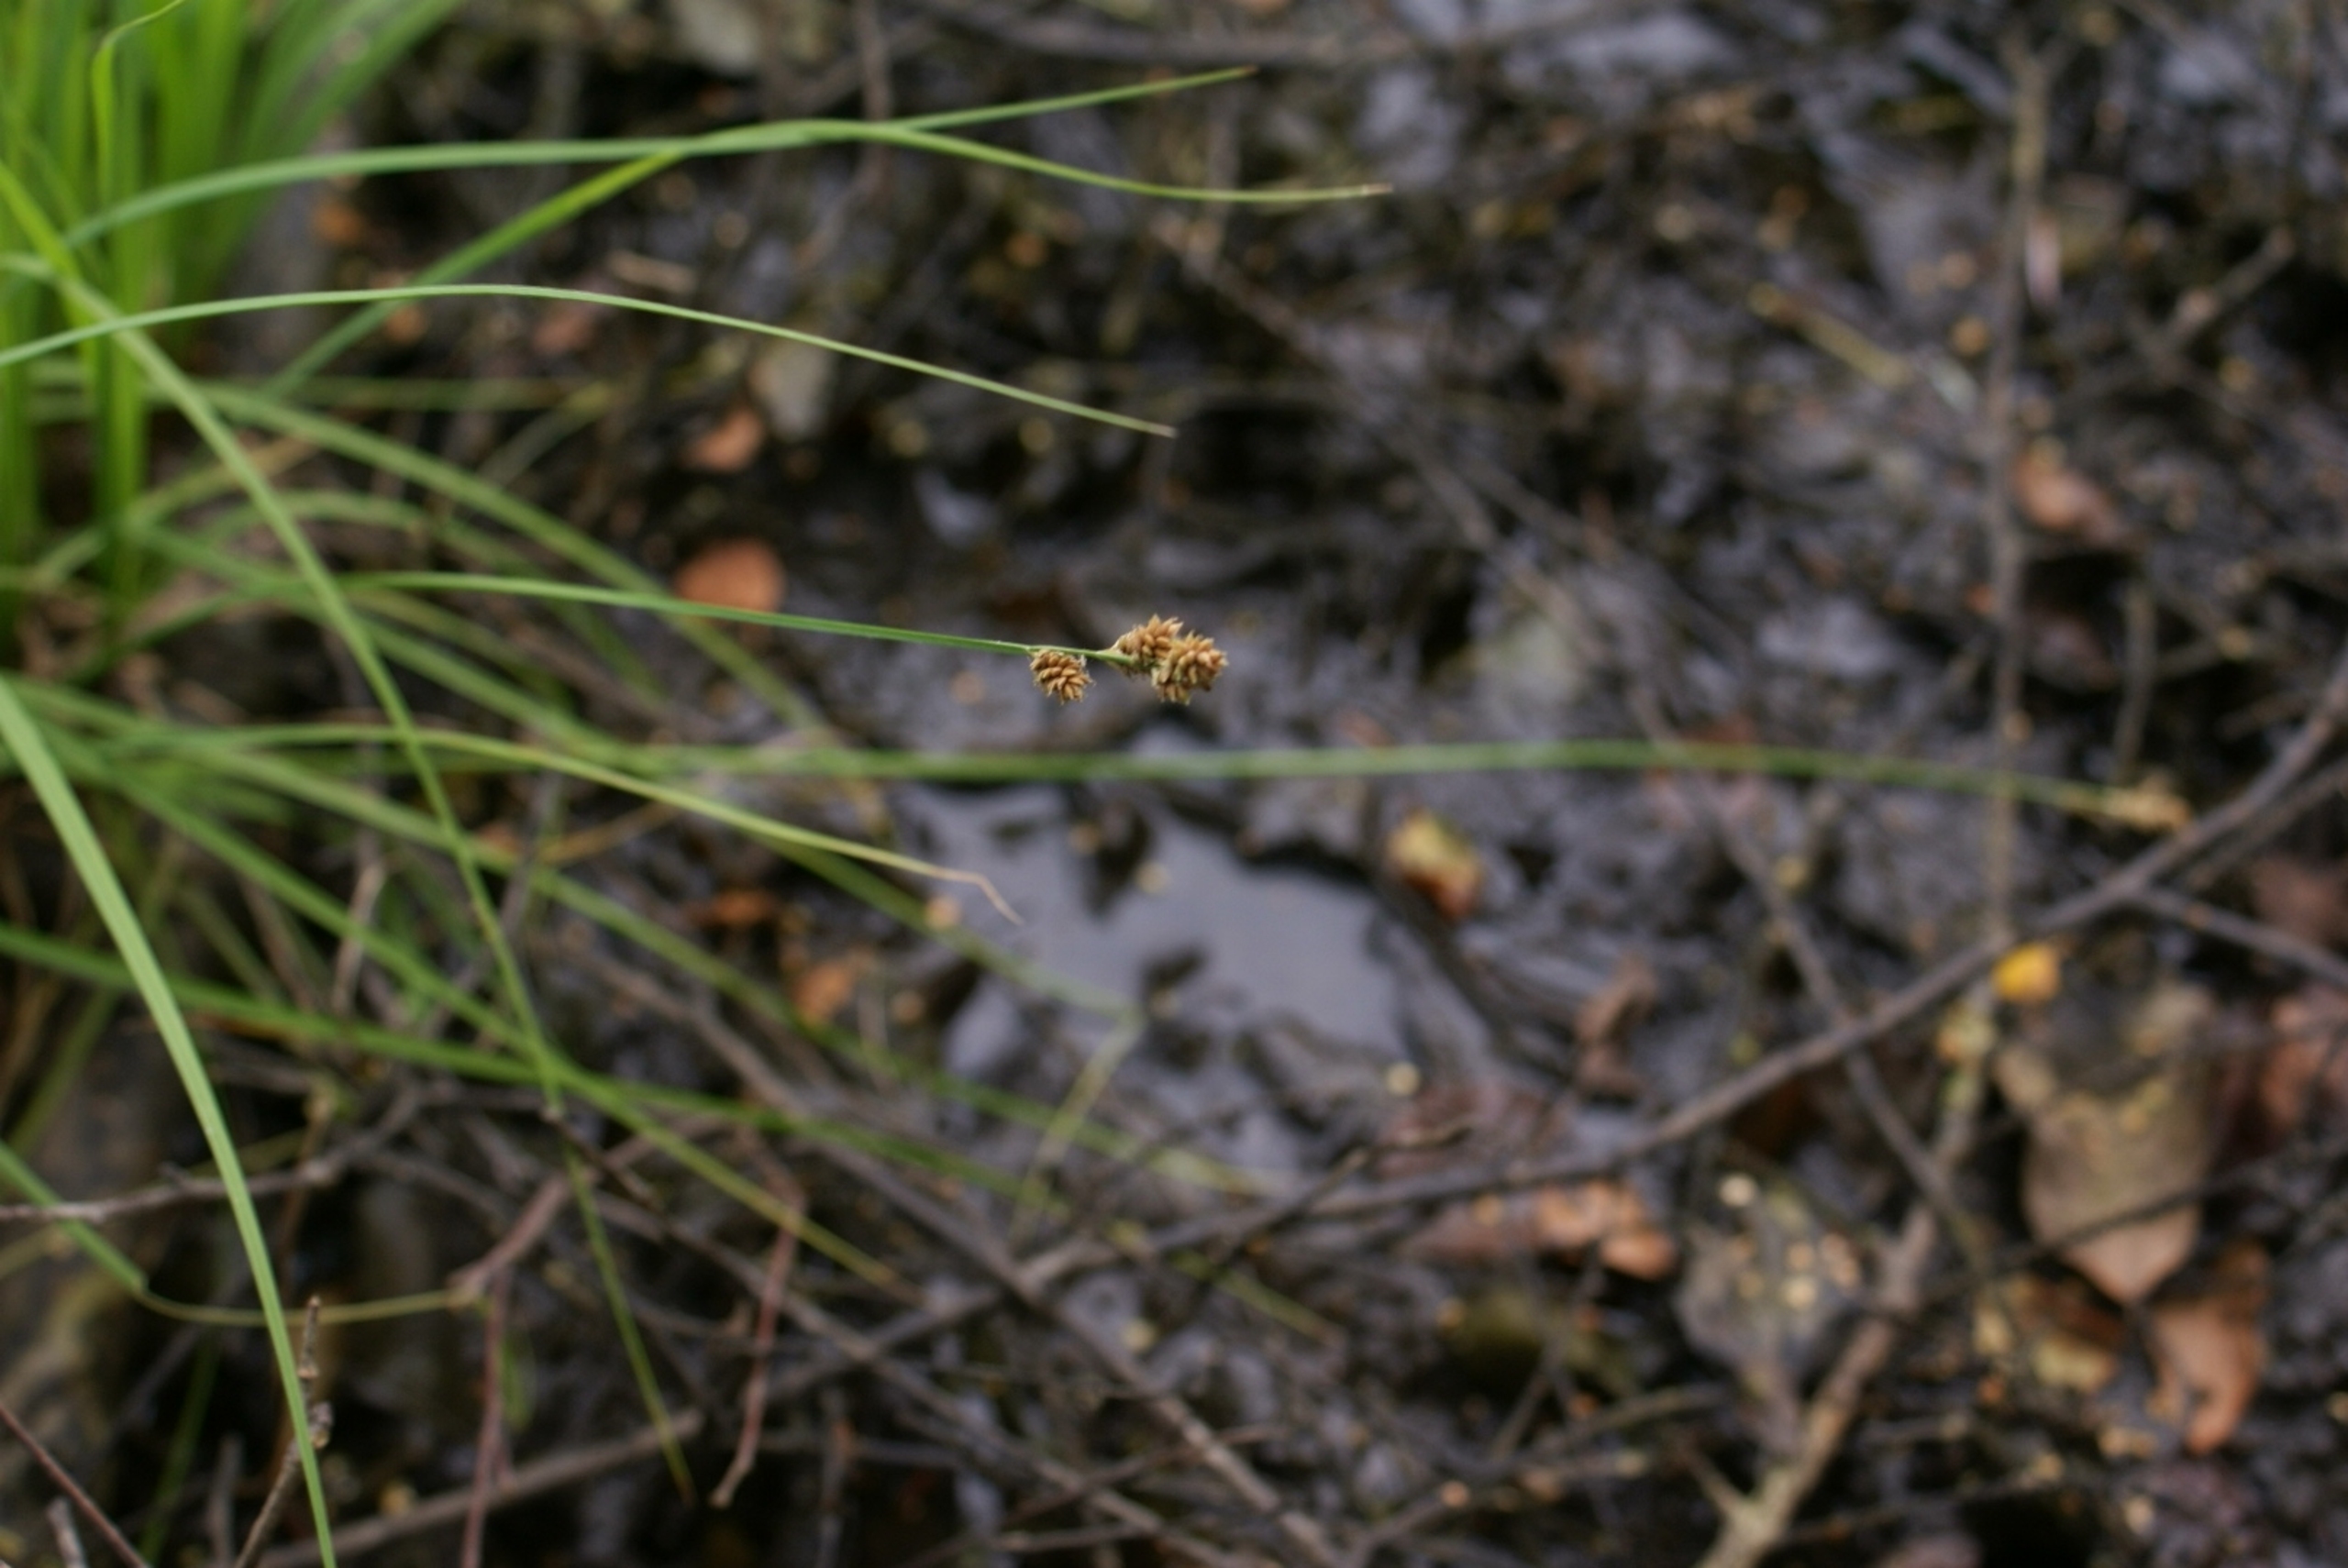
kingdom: Plantae
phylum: Tracheophyta
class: Liliopsida
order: Poales
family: Cyperaceae
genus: Carex
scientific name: Carex canescens
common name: Grå star
